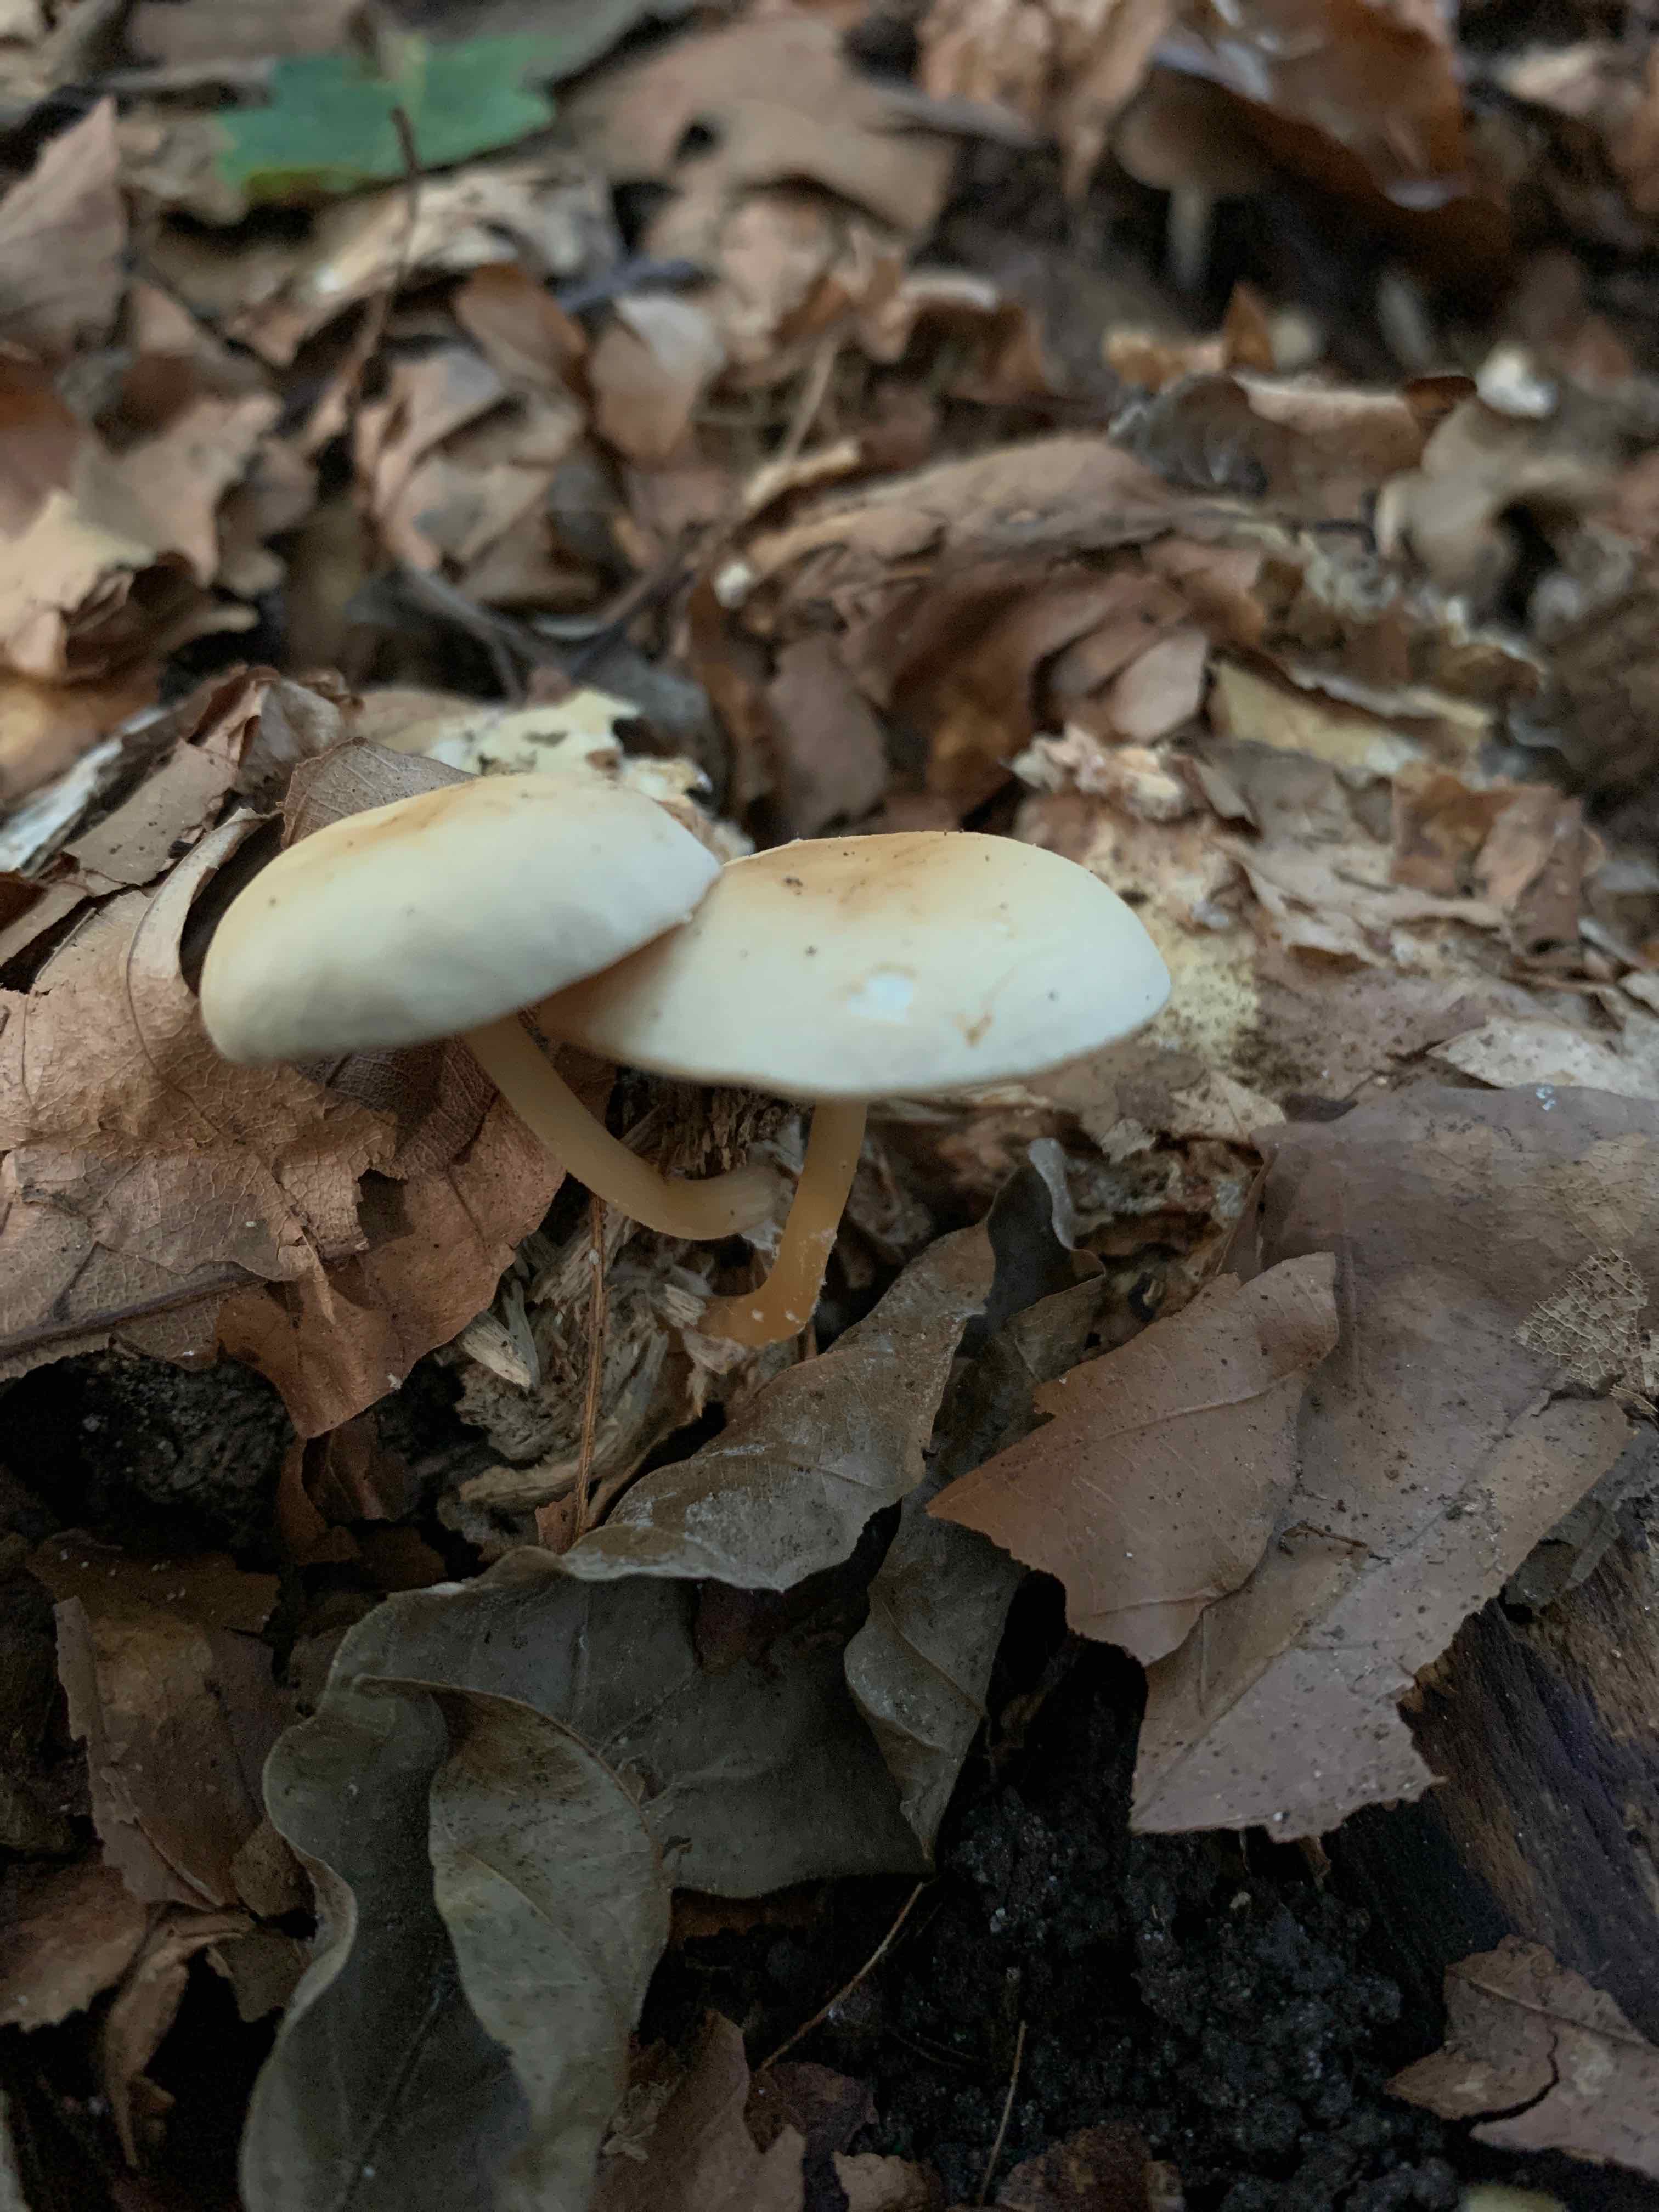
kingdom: Fungi
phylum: Basidiomycota
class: Agaricomycetes
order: Agaricales
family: Omphalotaceae
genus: Gymnopus
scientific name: Gymnopus dryophilus
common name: løv-fladhat
